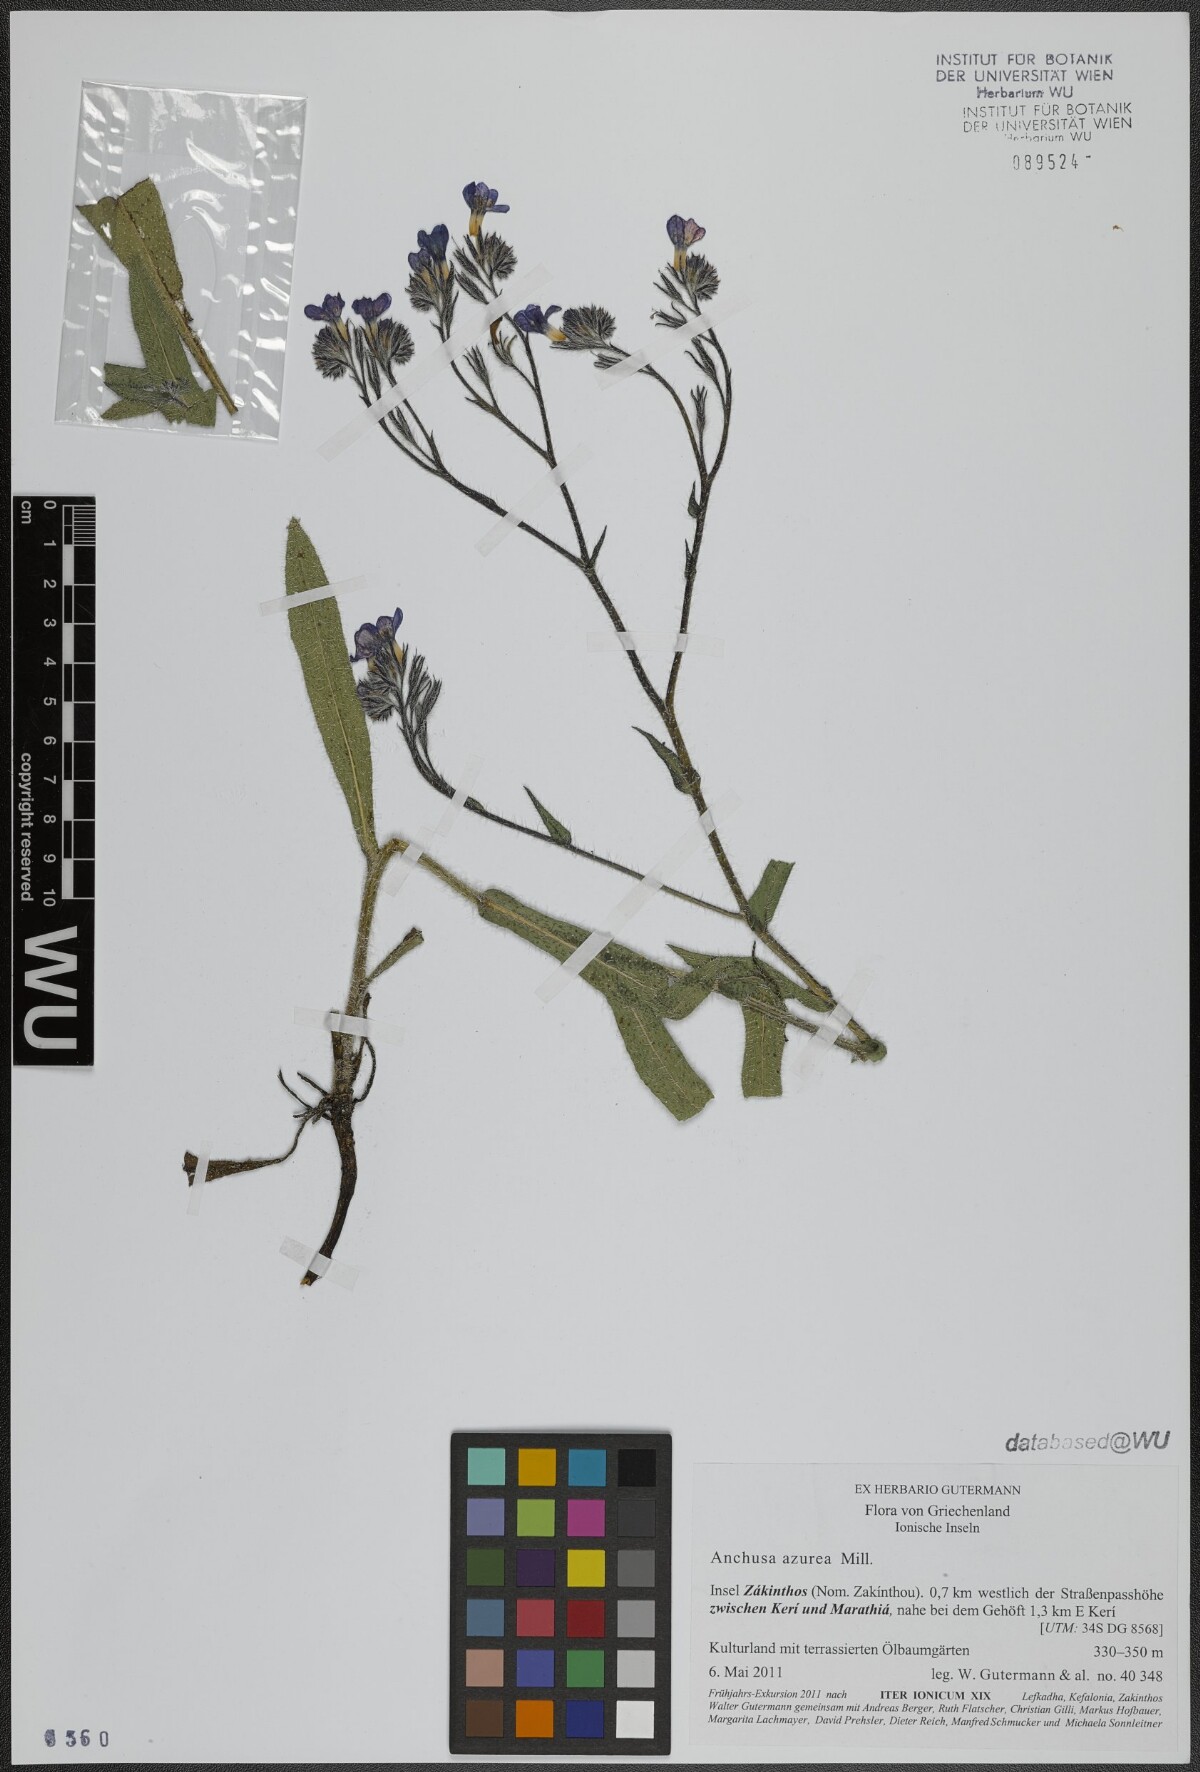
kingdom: Plantae
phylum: Tracheophyta
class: Magnoliopsida
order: Boraginales
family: Boraginaceae
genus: Anchusa
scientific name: Anchusa azurea
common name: Garden anchusa
